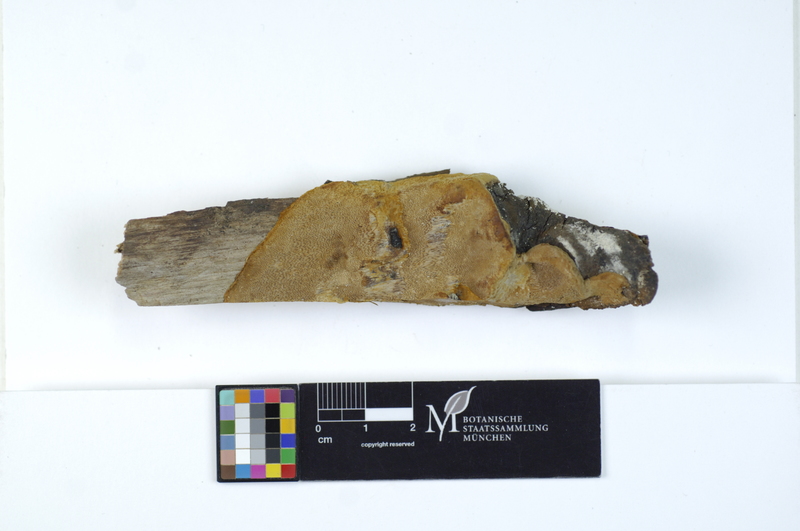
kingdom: Fungi
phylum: Basidiomycota
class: Agaricomycetes
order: Hymenochaetales
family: Hymenochaetaceae
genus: Phellinus
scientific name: Phellinus lundellii
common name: Birch bristle bracket
